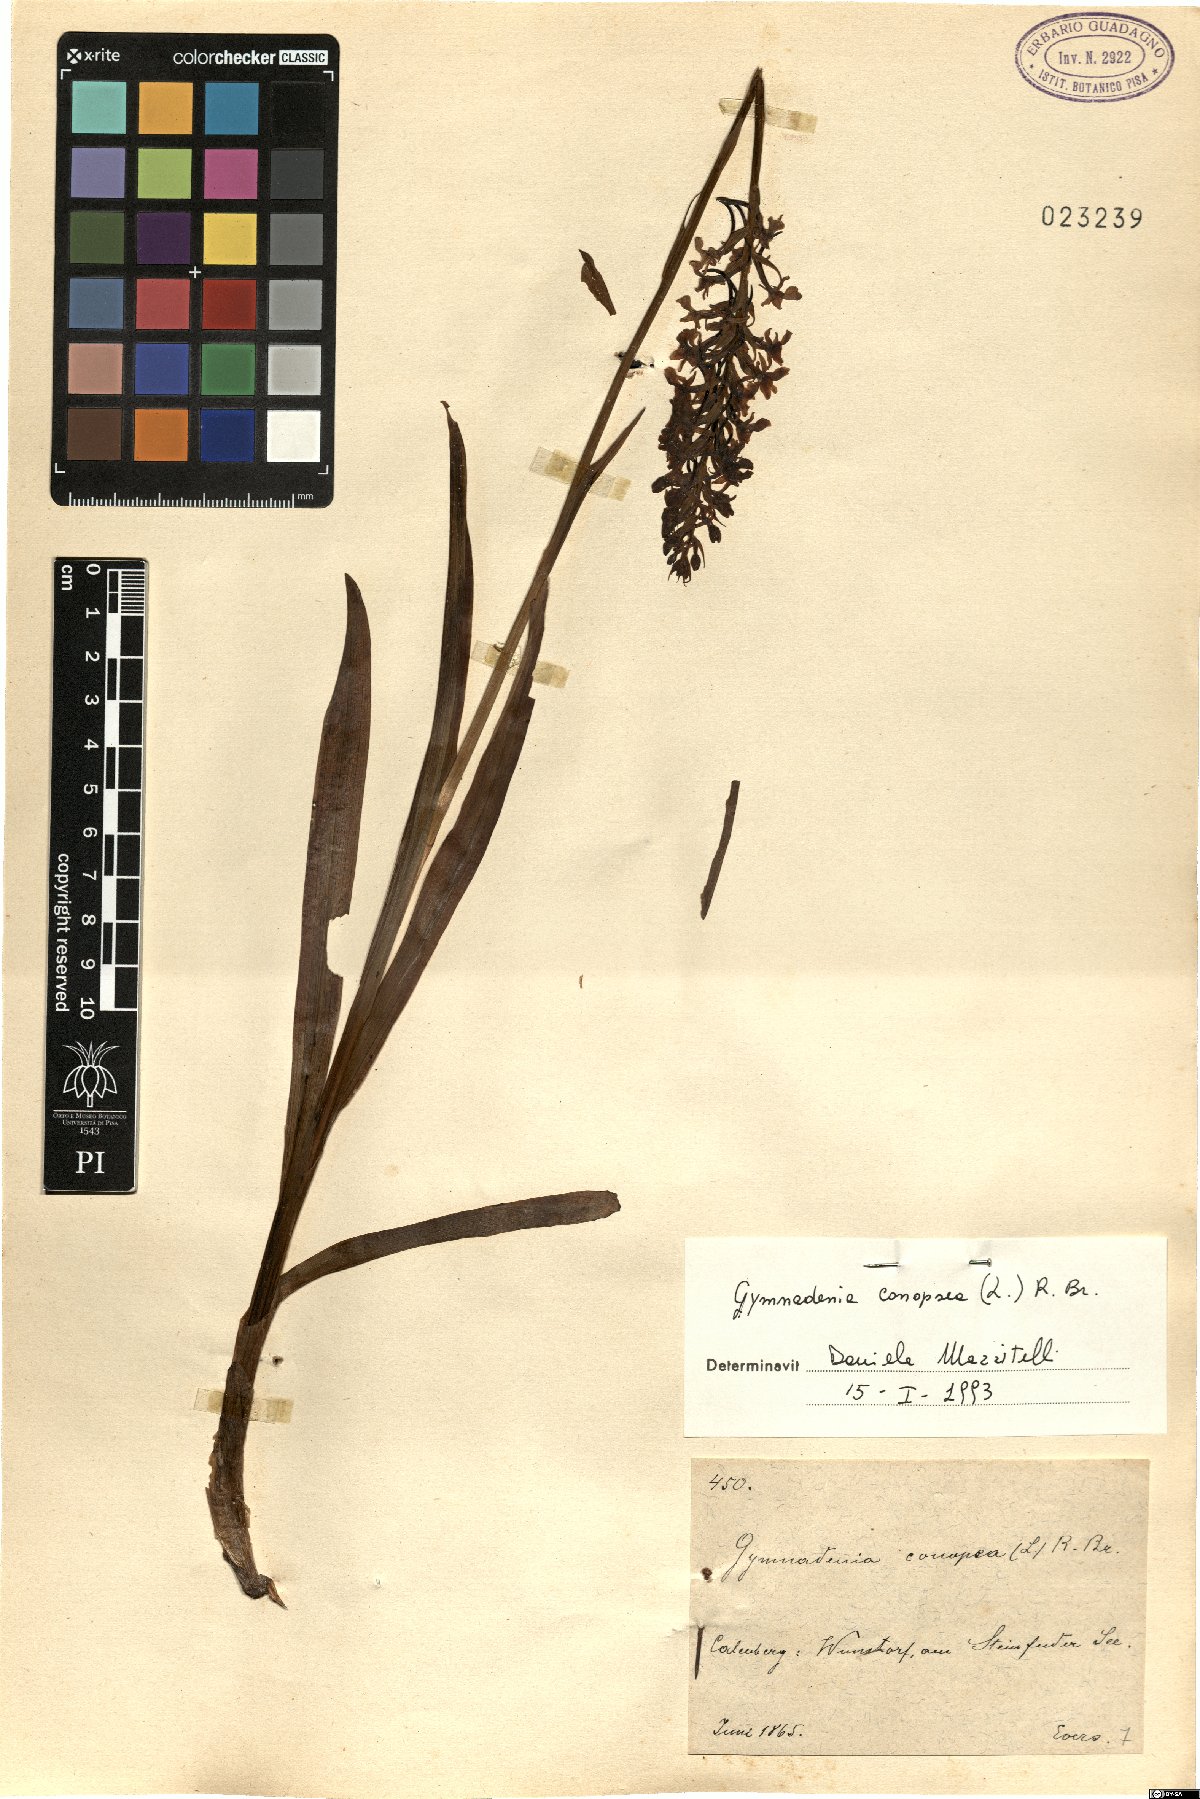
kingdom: Plantae
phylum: Tracheophyta
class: Liliopsida
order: Asparagales
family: Orchidaceae
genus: Gymnadenia
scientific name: Gymnadenia conopsea
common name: Fragrant orchid
